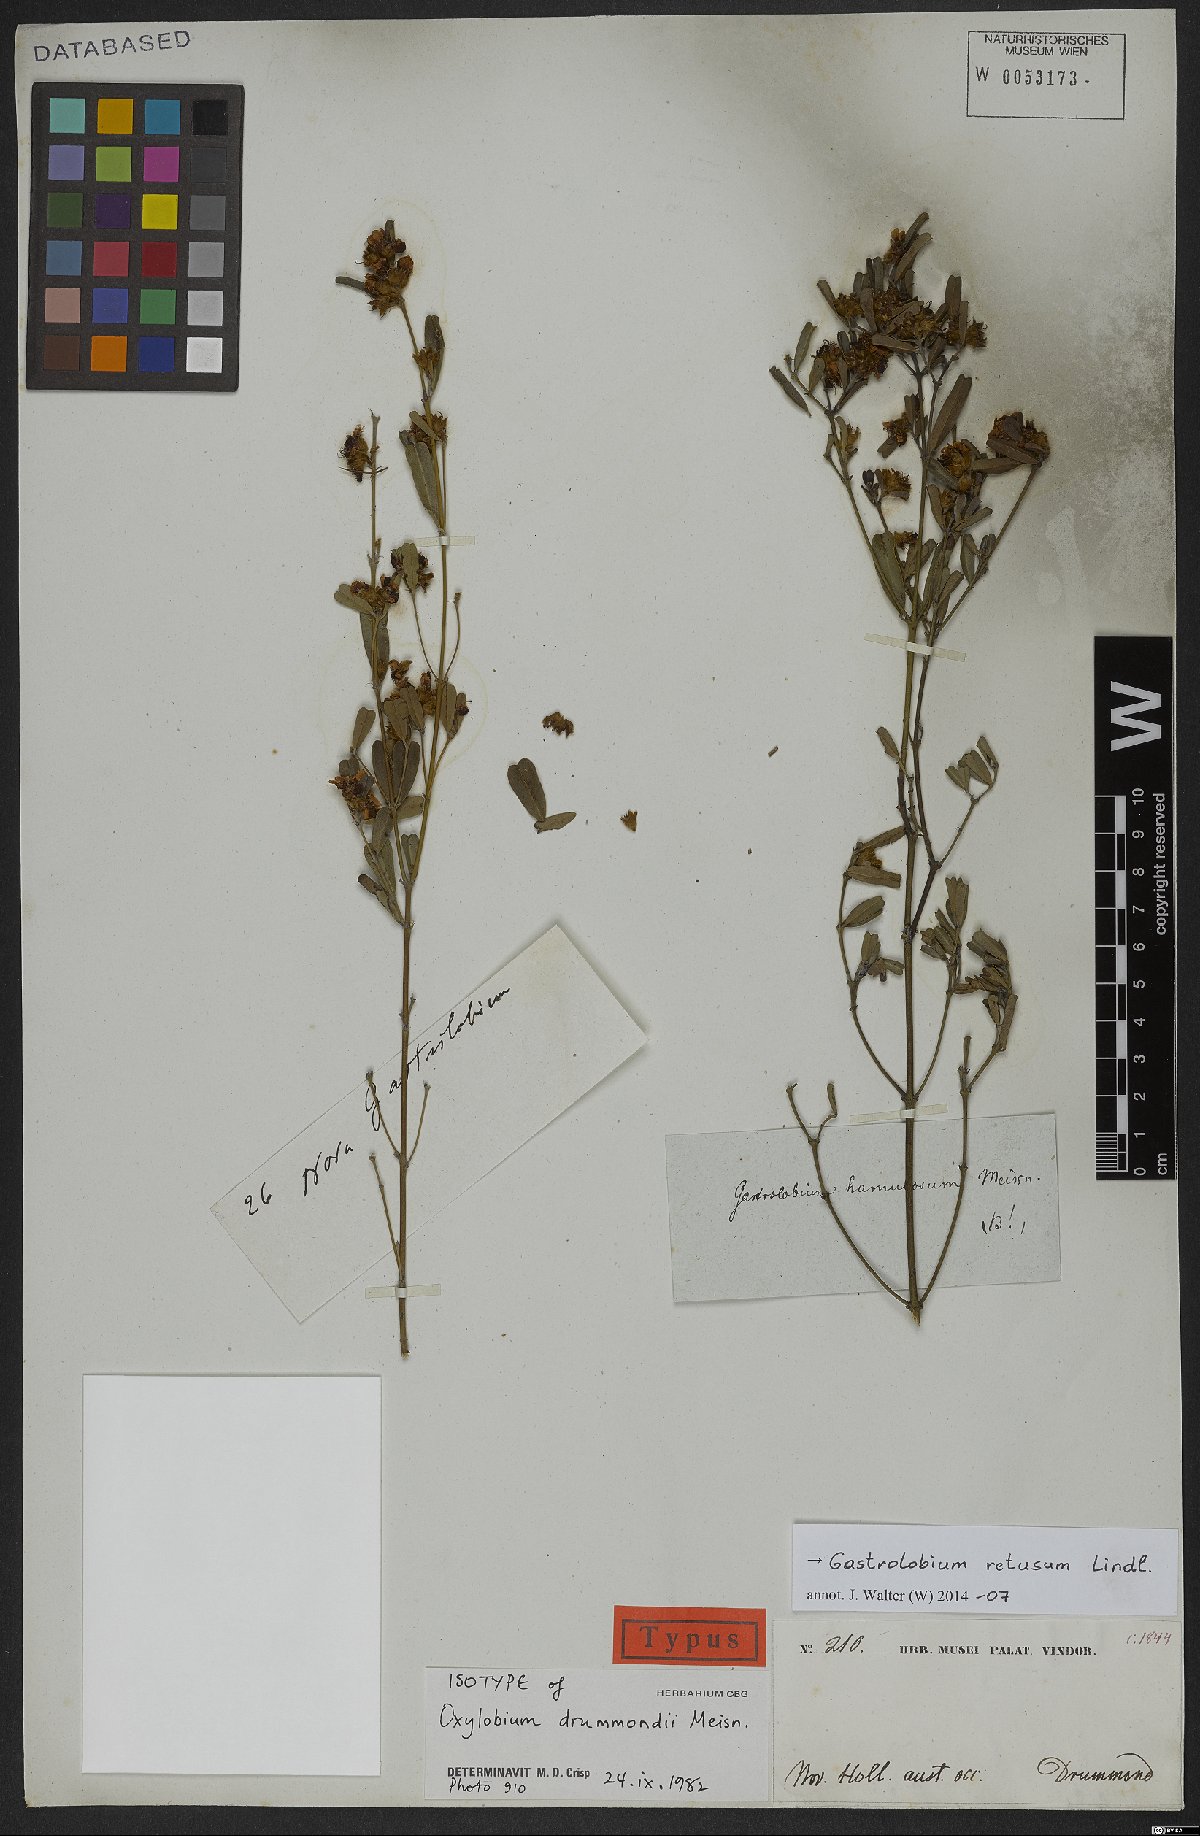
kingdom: Plantae
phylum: Tracheophyta
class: Magnoliopsida
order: Fabales
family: Fabaceae
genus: Gastrolobium
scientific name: Gastrolobium retusum
